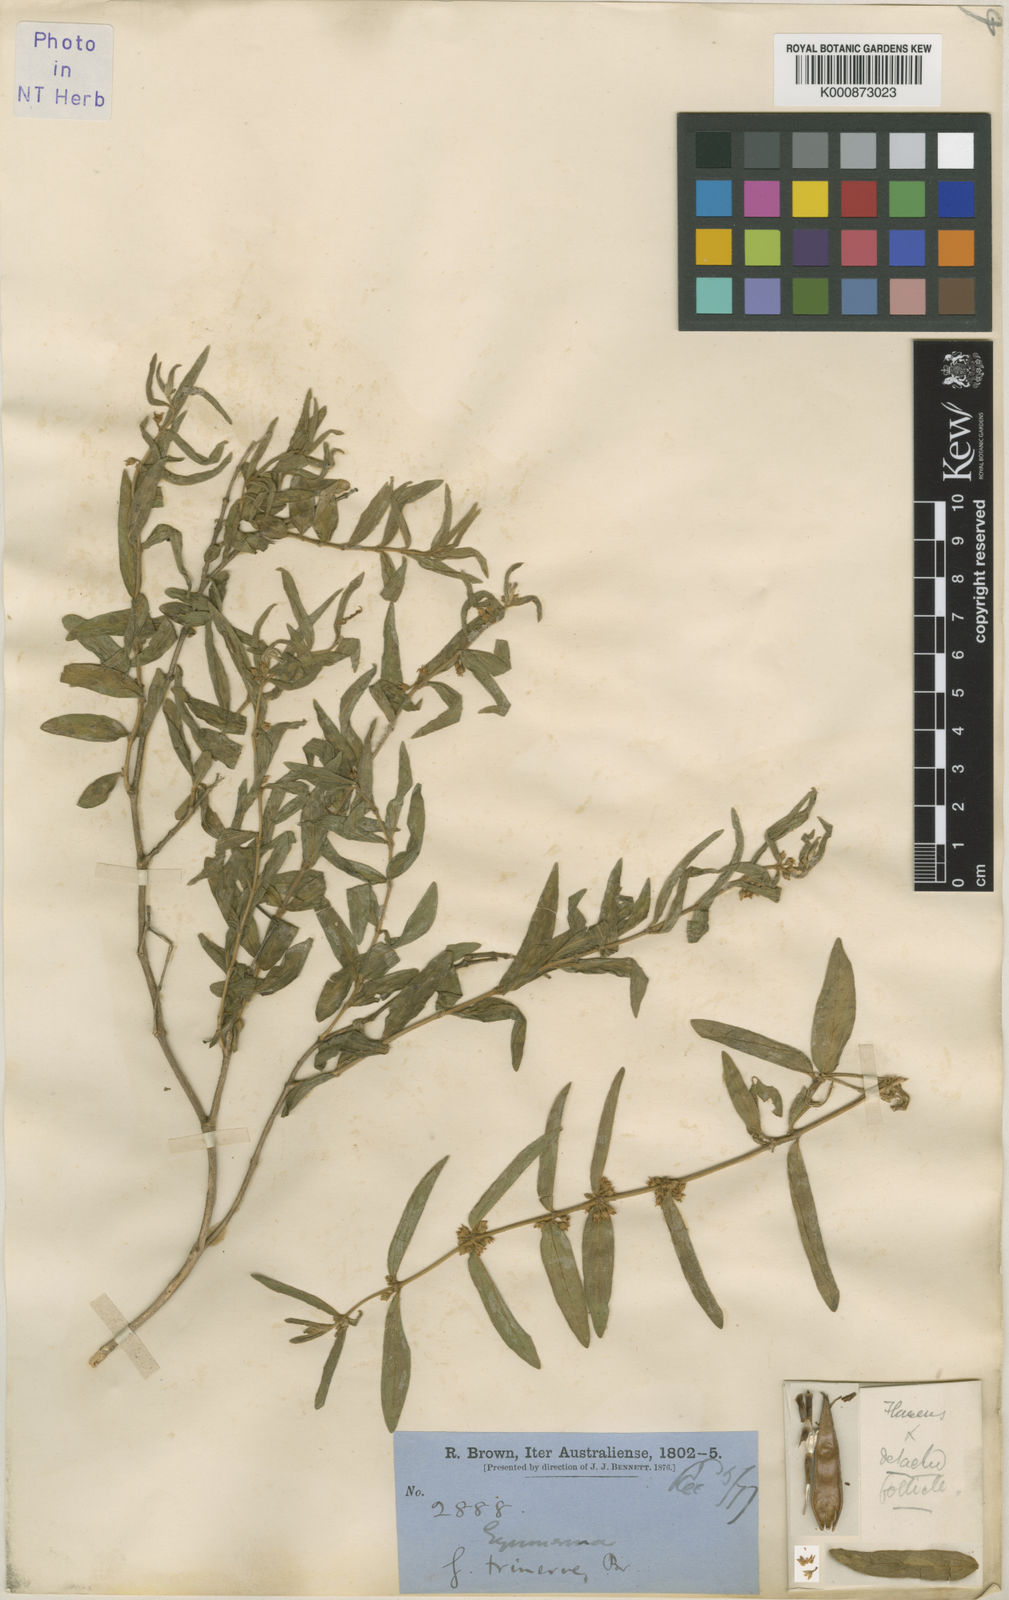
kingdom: Plantae
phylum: Tracheophyta
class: Magnoliopsida
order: Gentianales
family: Apocynaceae
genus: Gymnema
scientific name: Gymnema trinerve
